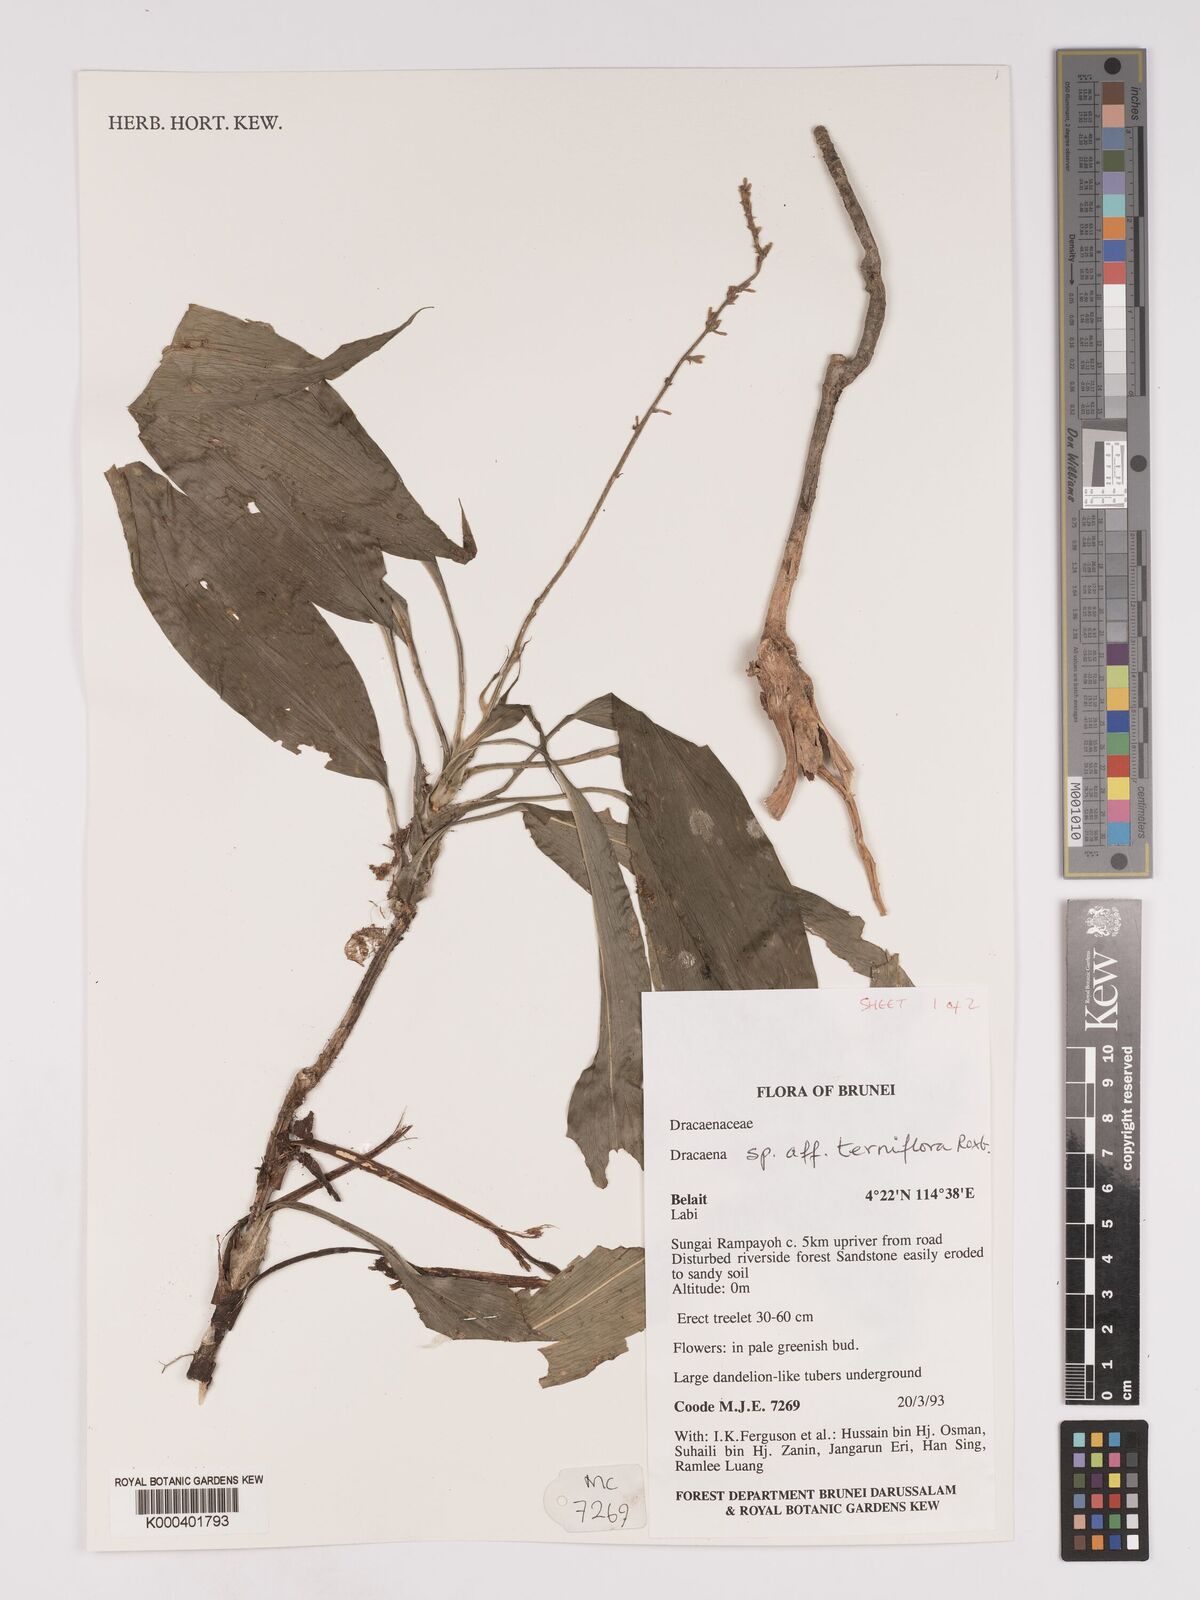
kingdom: Plantae
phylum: Tracheophyta
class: Liliopsida
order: Asparagales
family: Asparagaceae
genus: Dracaena
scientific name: Dracaena terniflora
